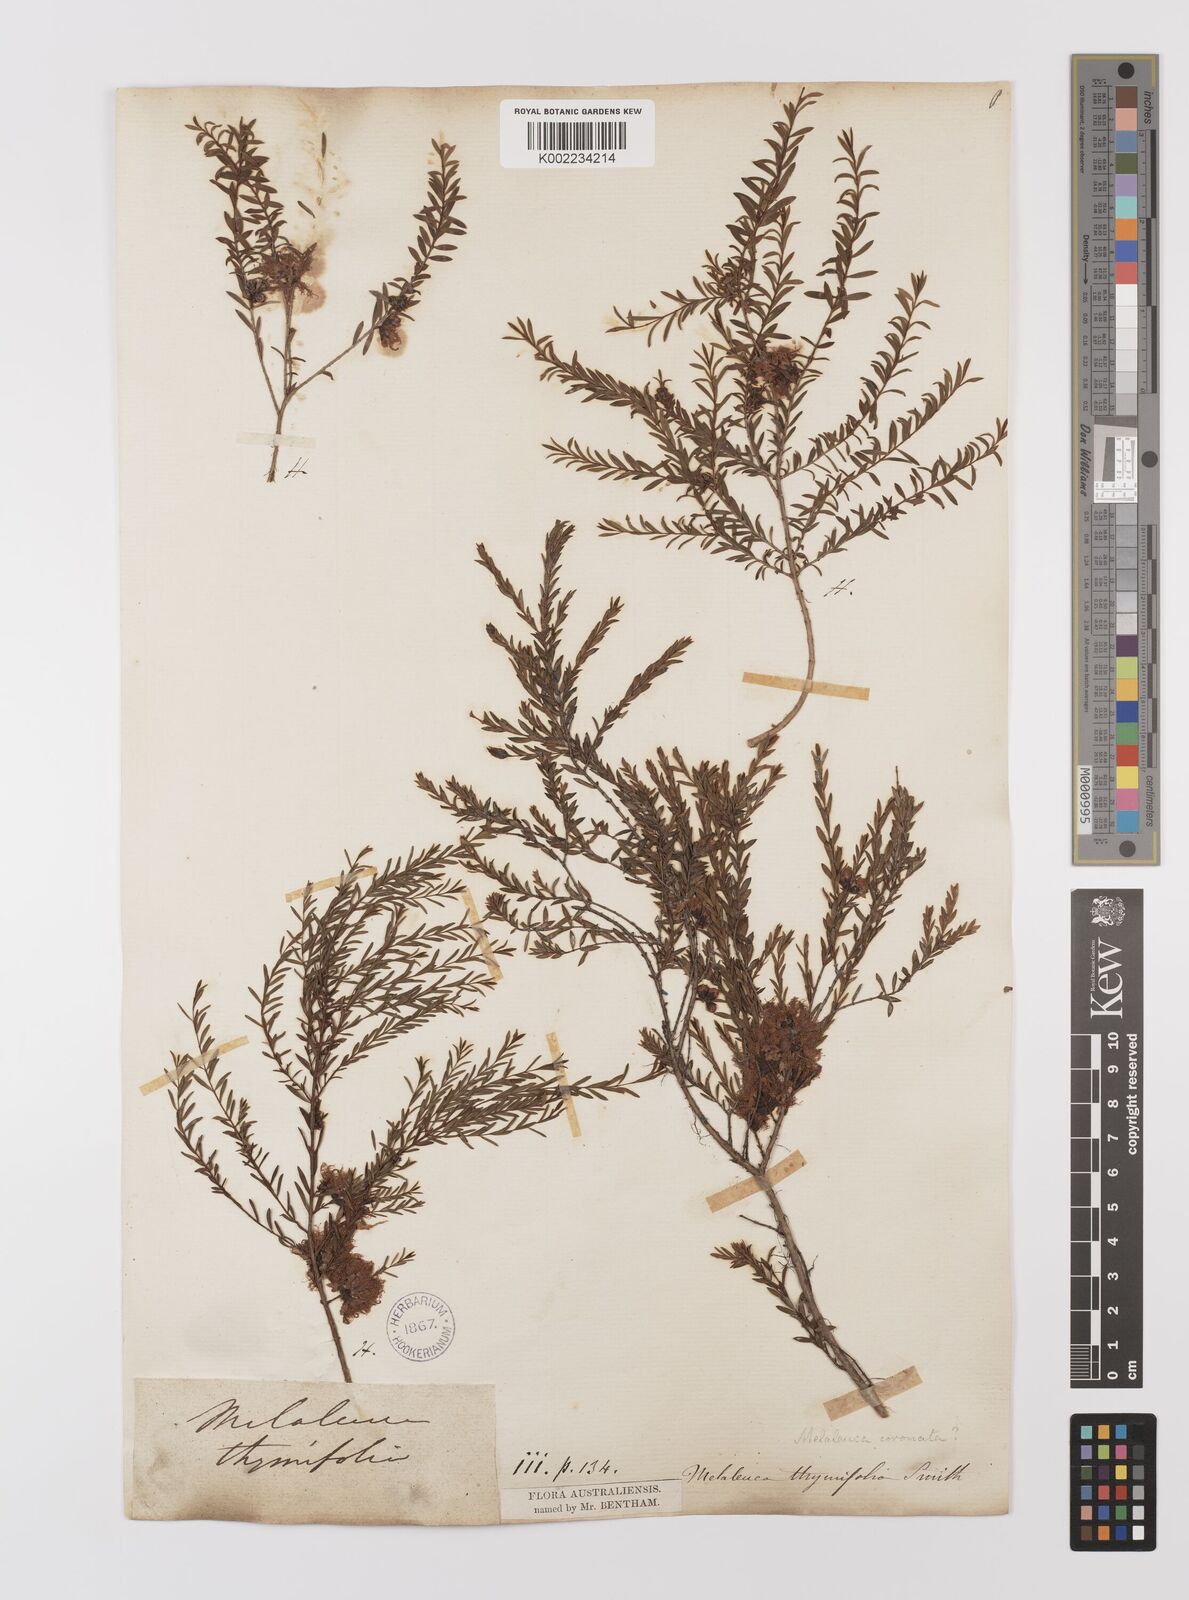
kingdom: Plantae
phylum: Tracheophyta
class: Magnoliopsida
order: Myrtales
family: Myrtaceae
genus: Melaleuca
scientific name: Melaleuca thymifolia
